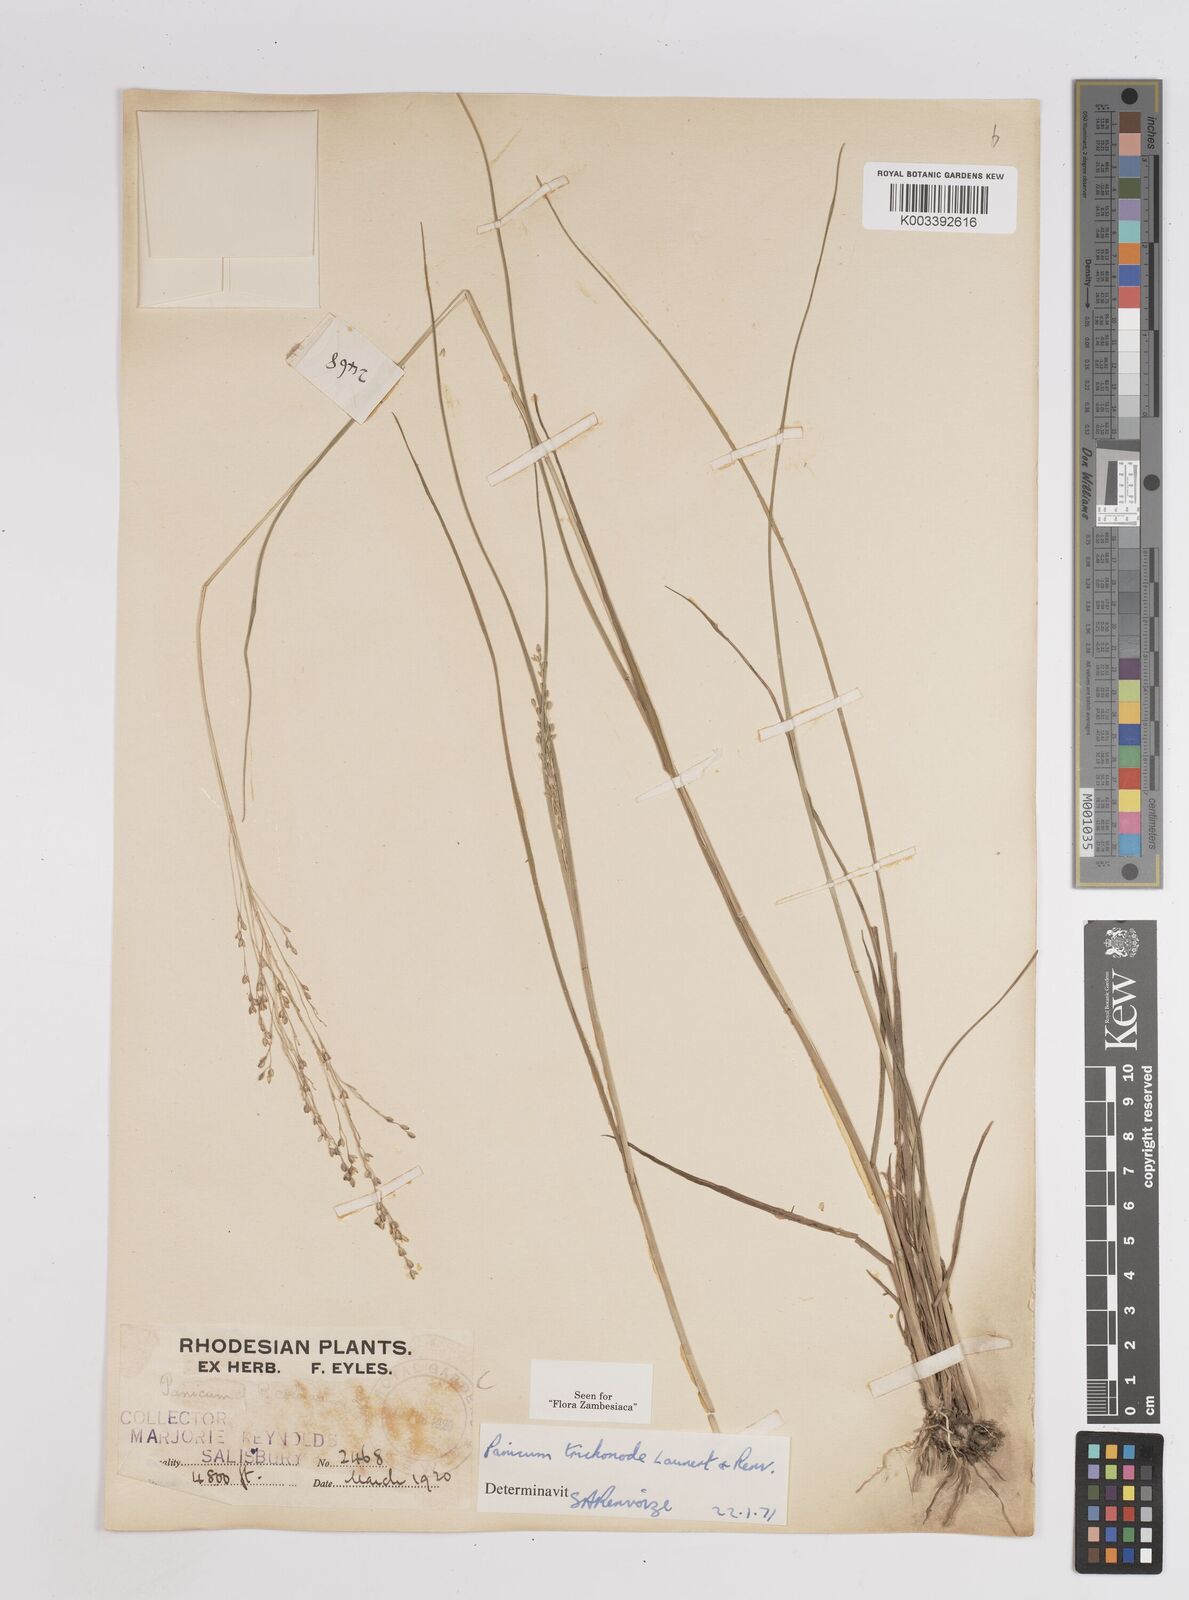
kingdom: Plantae
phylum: Tracheophyta
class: Liliopsida
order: Poales
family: Poaceae
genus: Panicum
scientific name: Panicum trichonode
